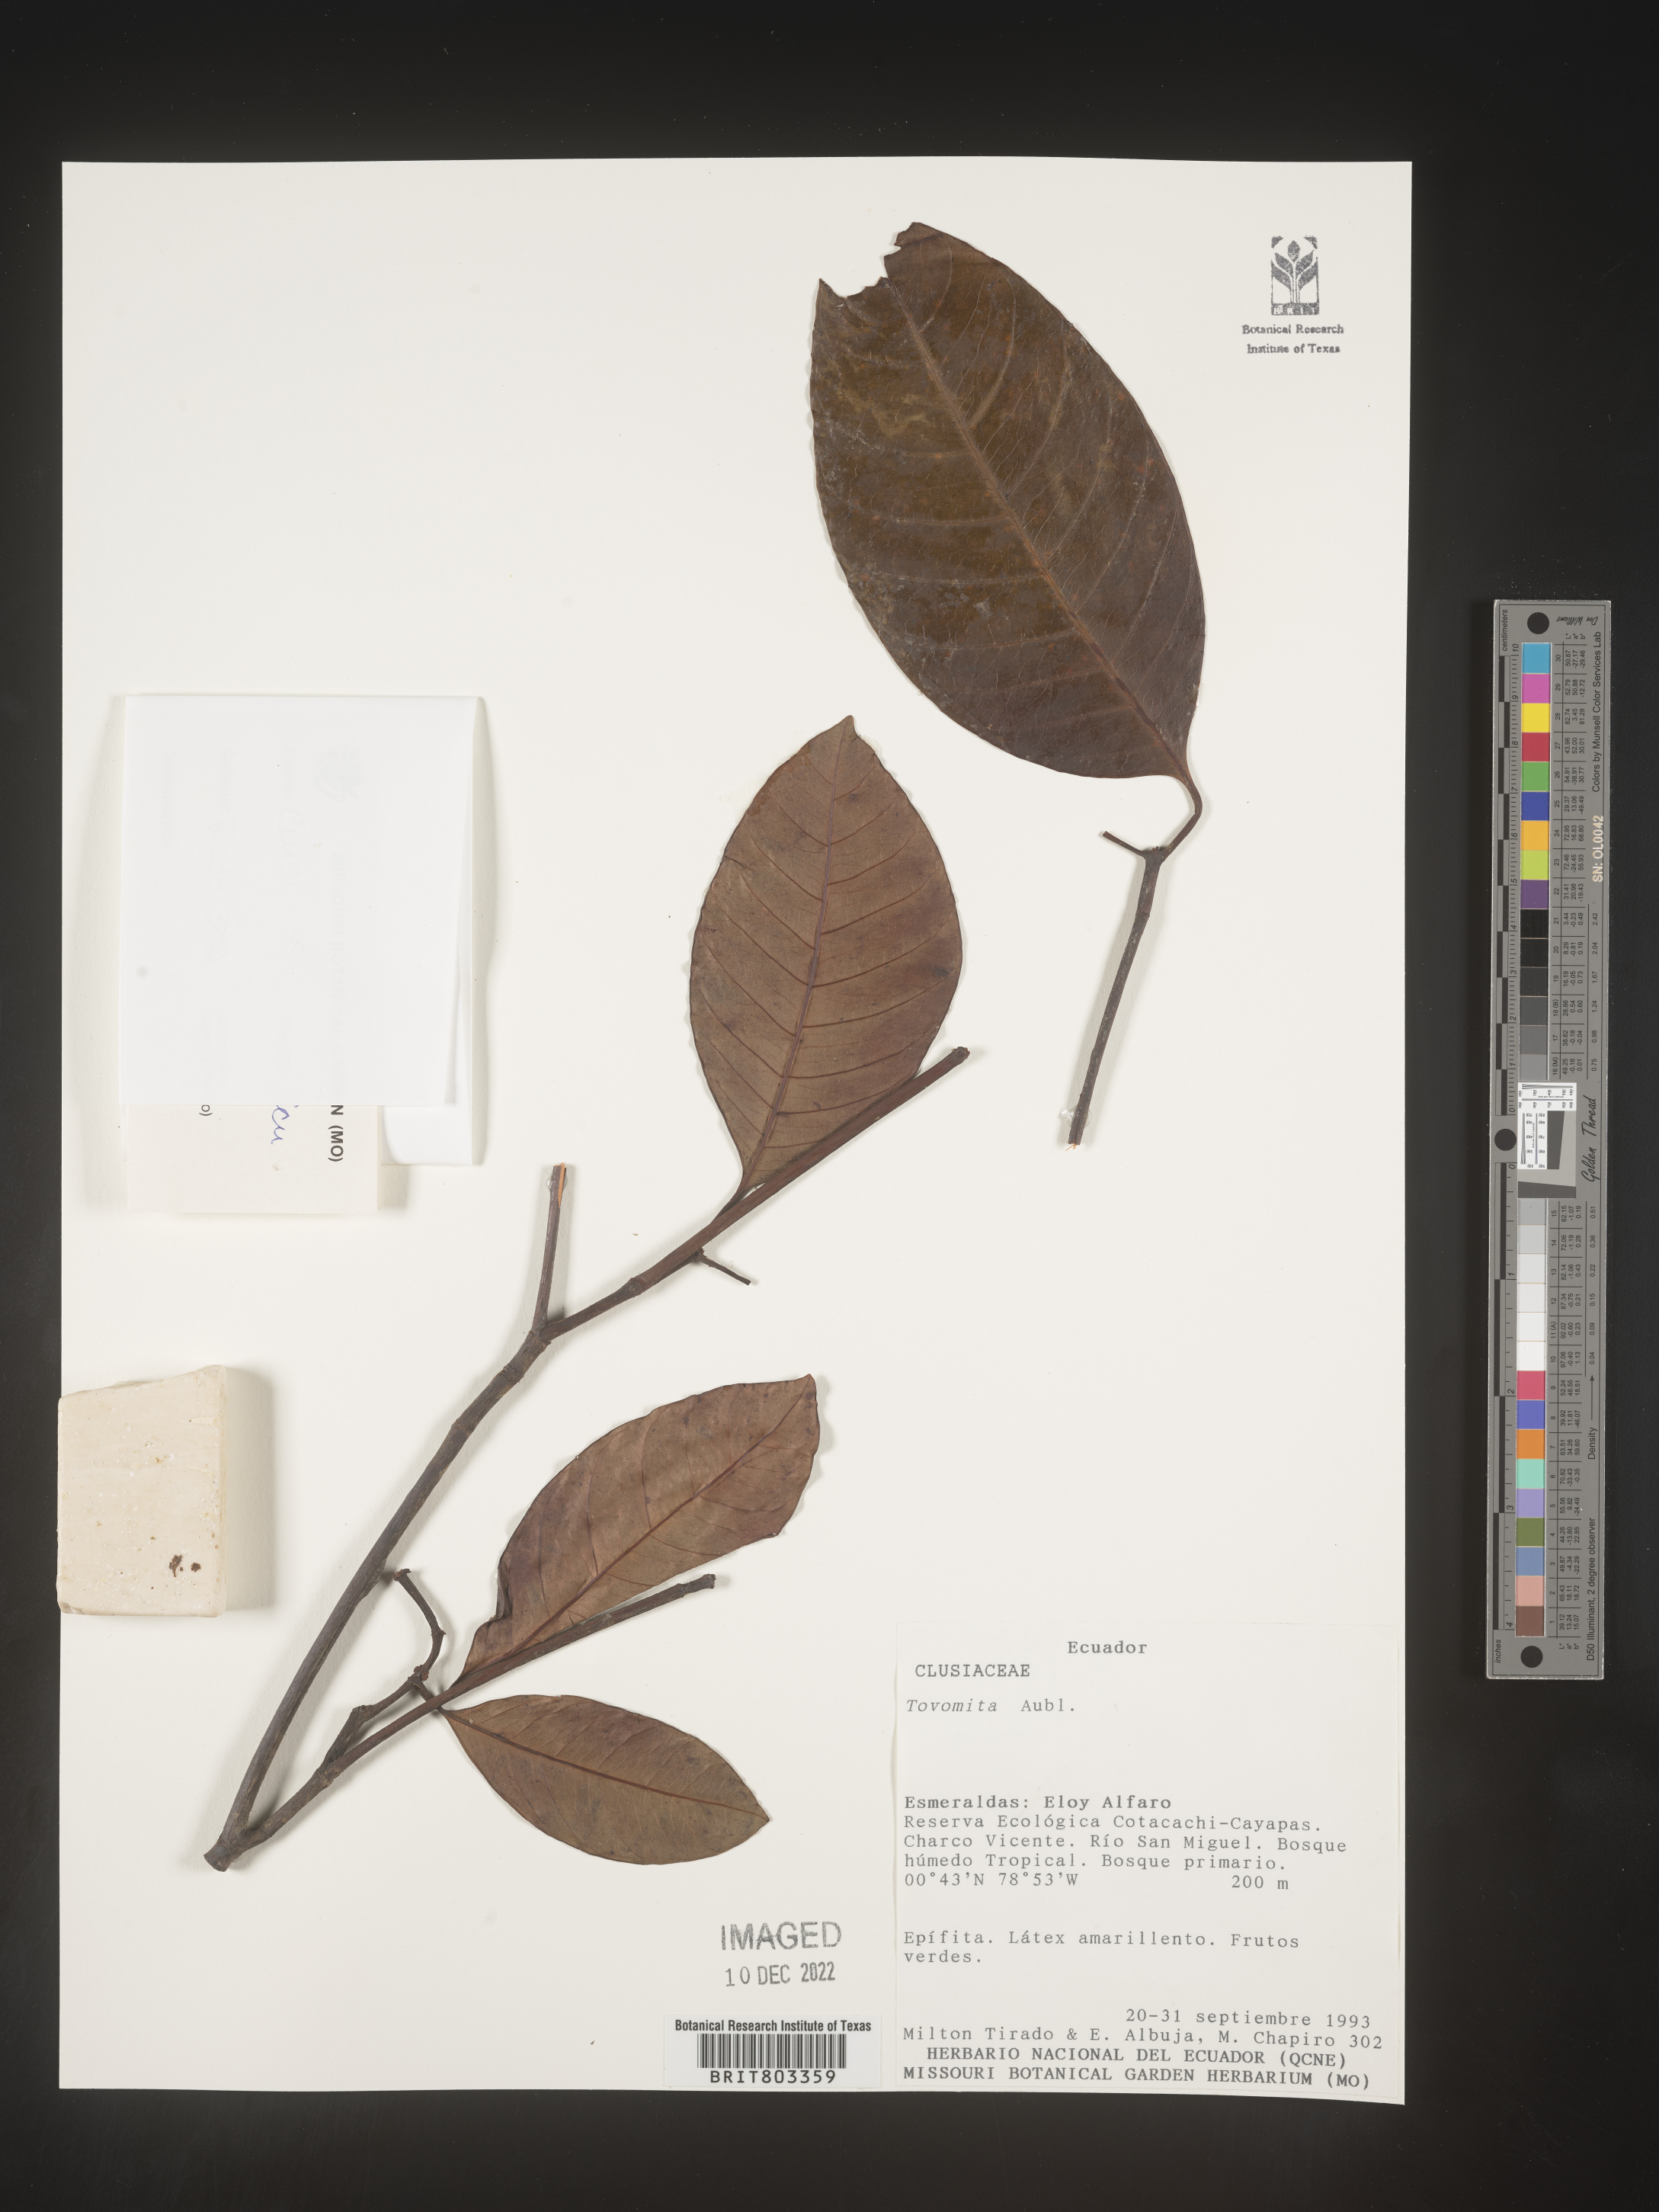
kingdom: Plantae
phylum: Tracheophyta
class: Magnoliopsida
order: Malpighiales
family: Clusiaceae
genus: Tovomita
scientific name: Tovomita
